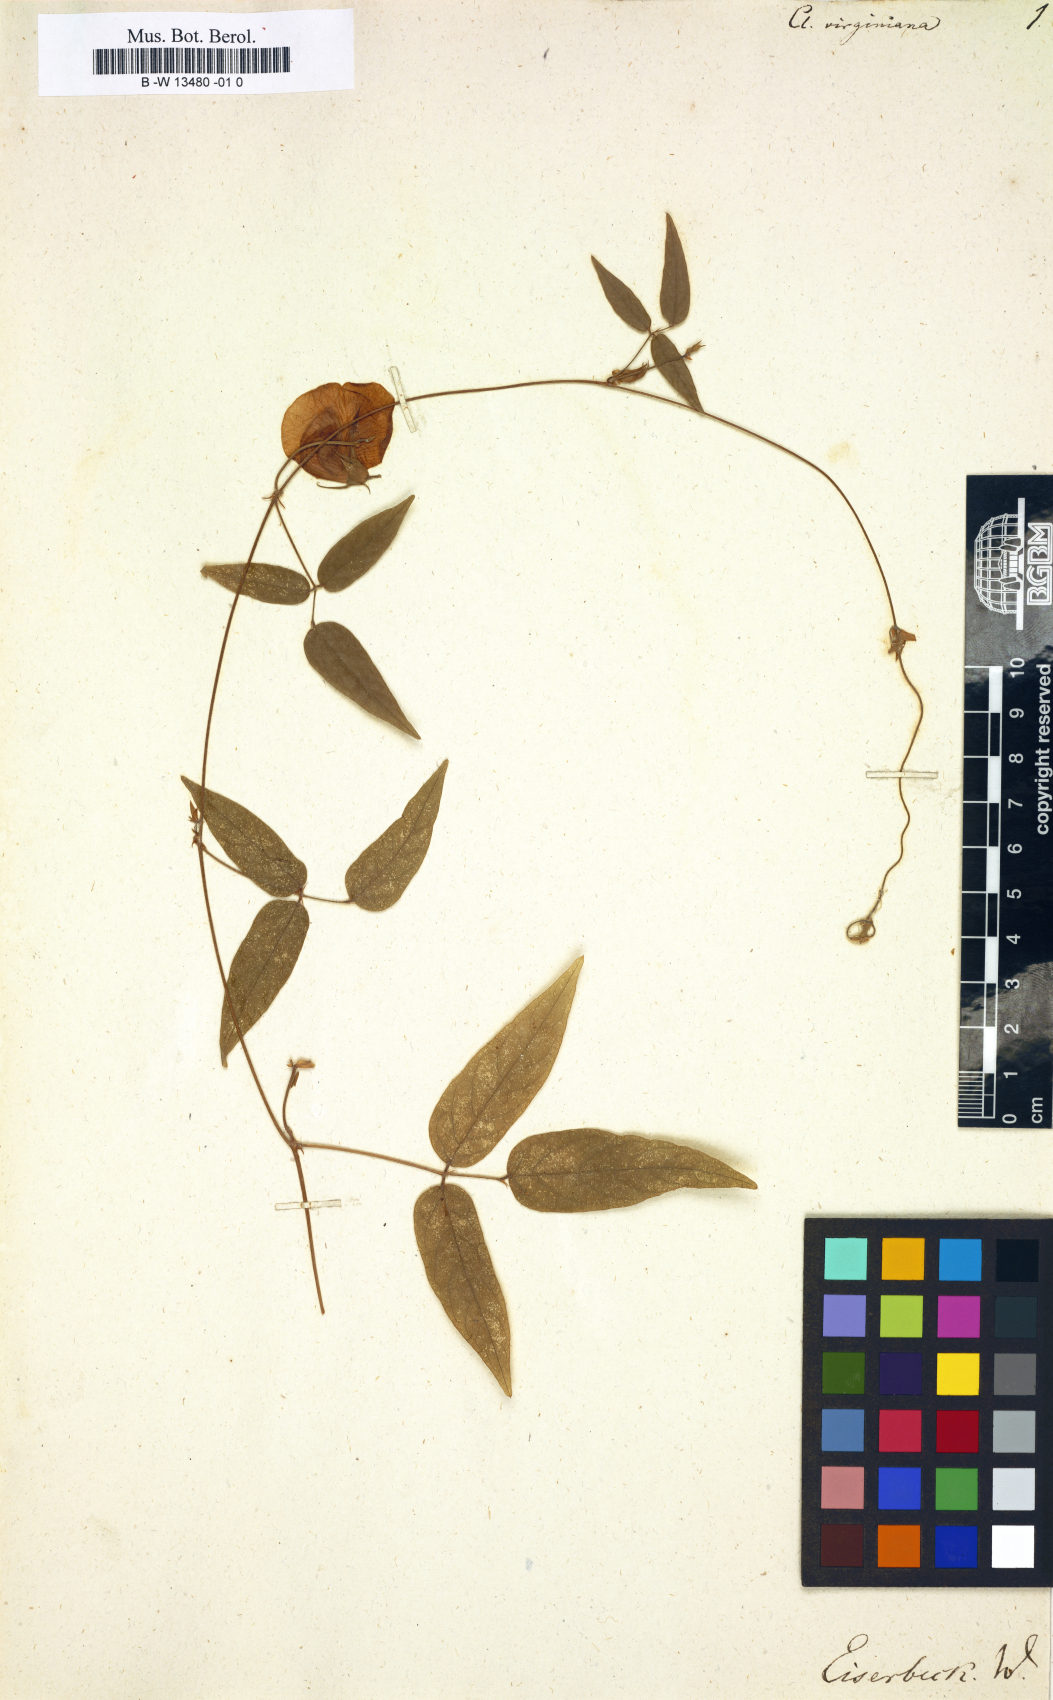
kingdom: Plantae
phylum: Tracheophyta
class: Magnoliopsida
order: Fabales
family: Fabaceae
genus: Centrosema
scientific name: Centrosema virginianum
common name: Butterfly-pea
